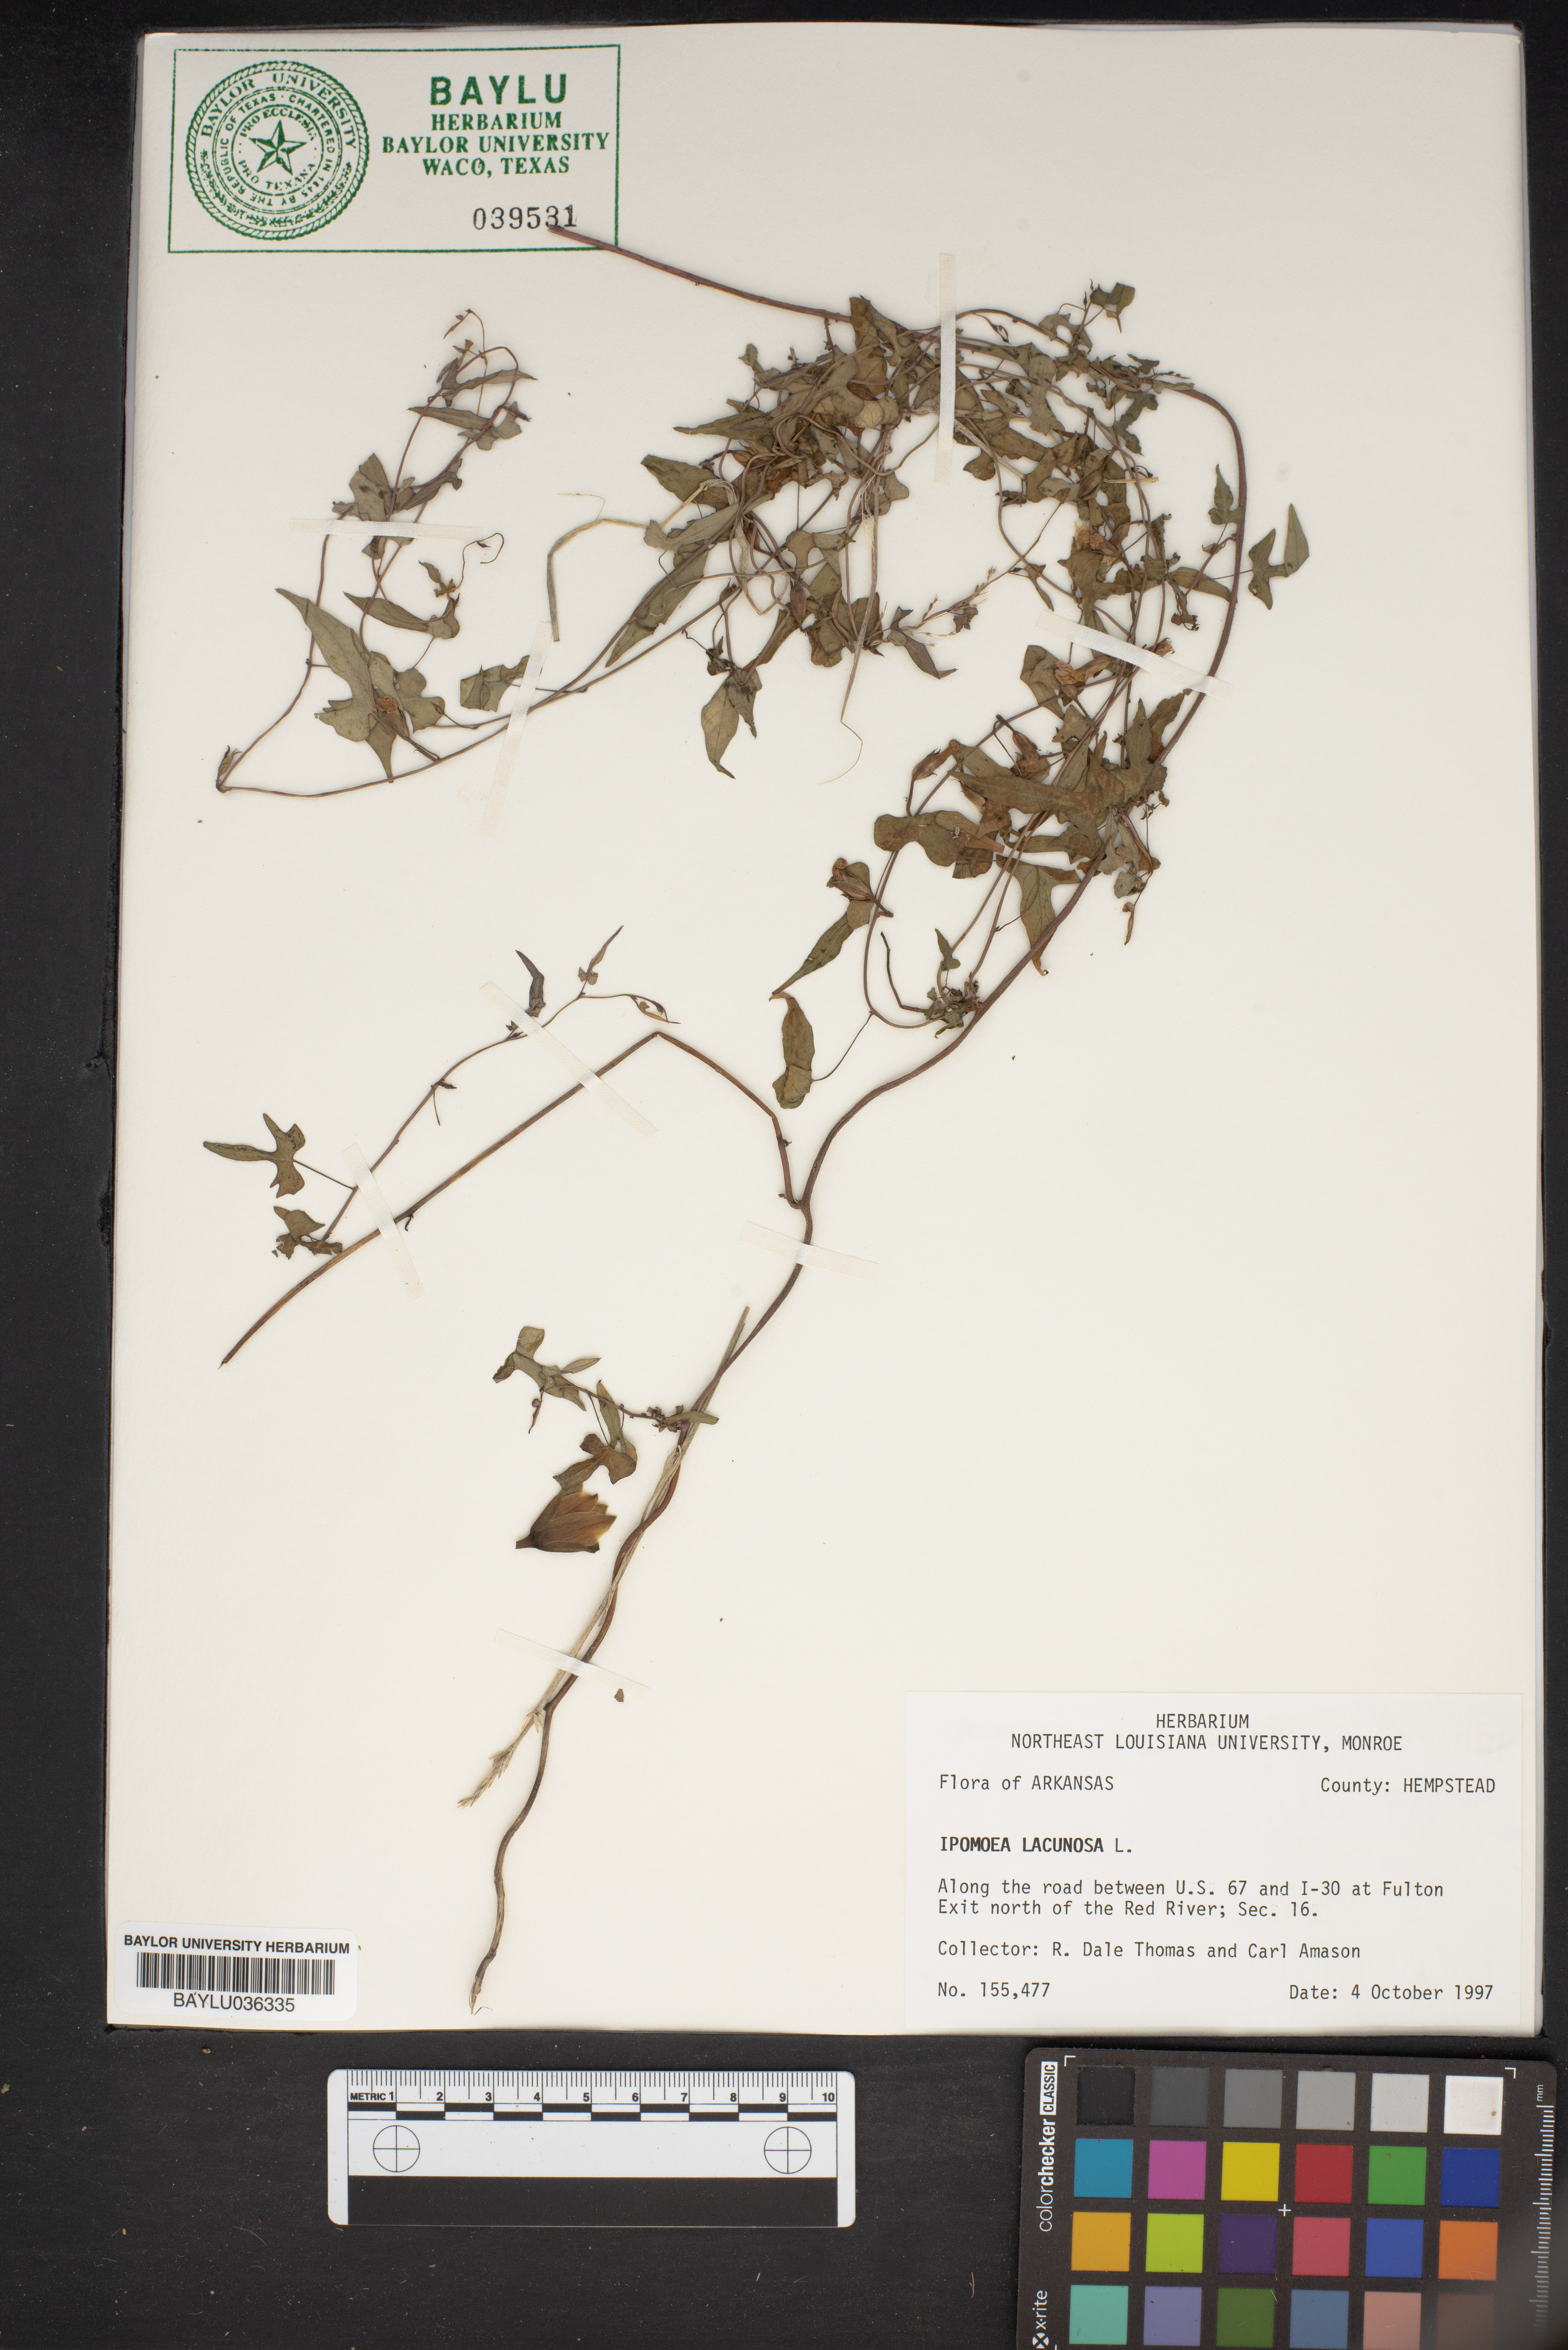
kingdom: Plantae
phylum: Tracheophyta
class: Magnoliopsida
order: Solanales
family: Convolvulaceae
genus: Ipomoea
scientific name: Ipomoea lacunosa
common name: White morning-glory
